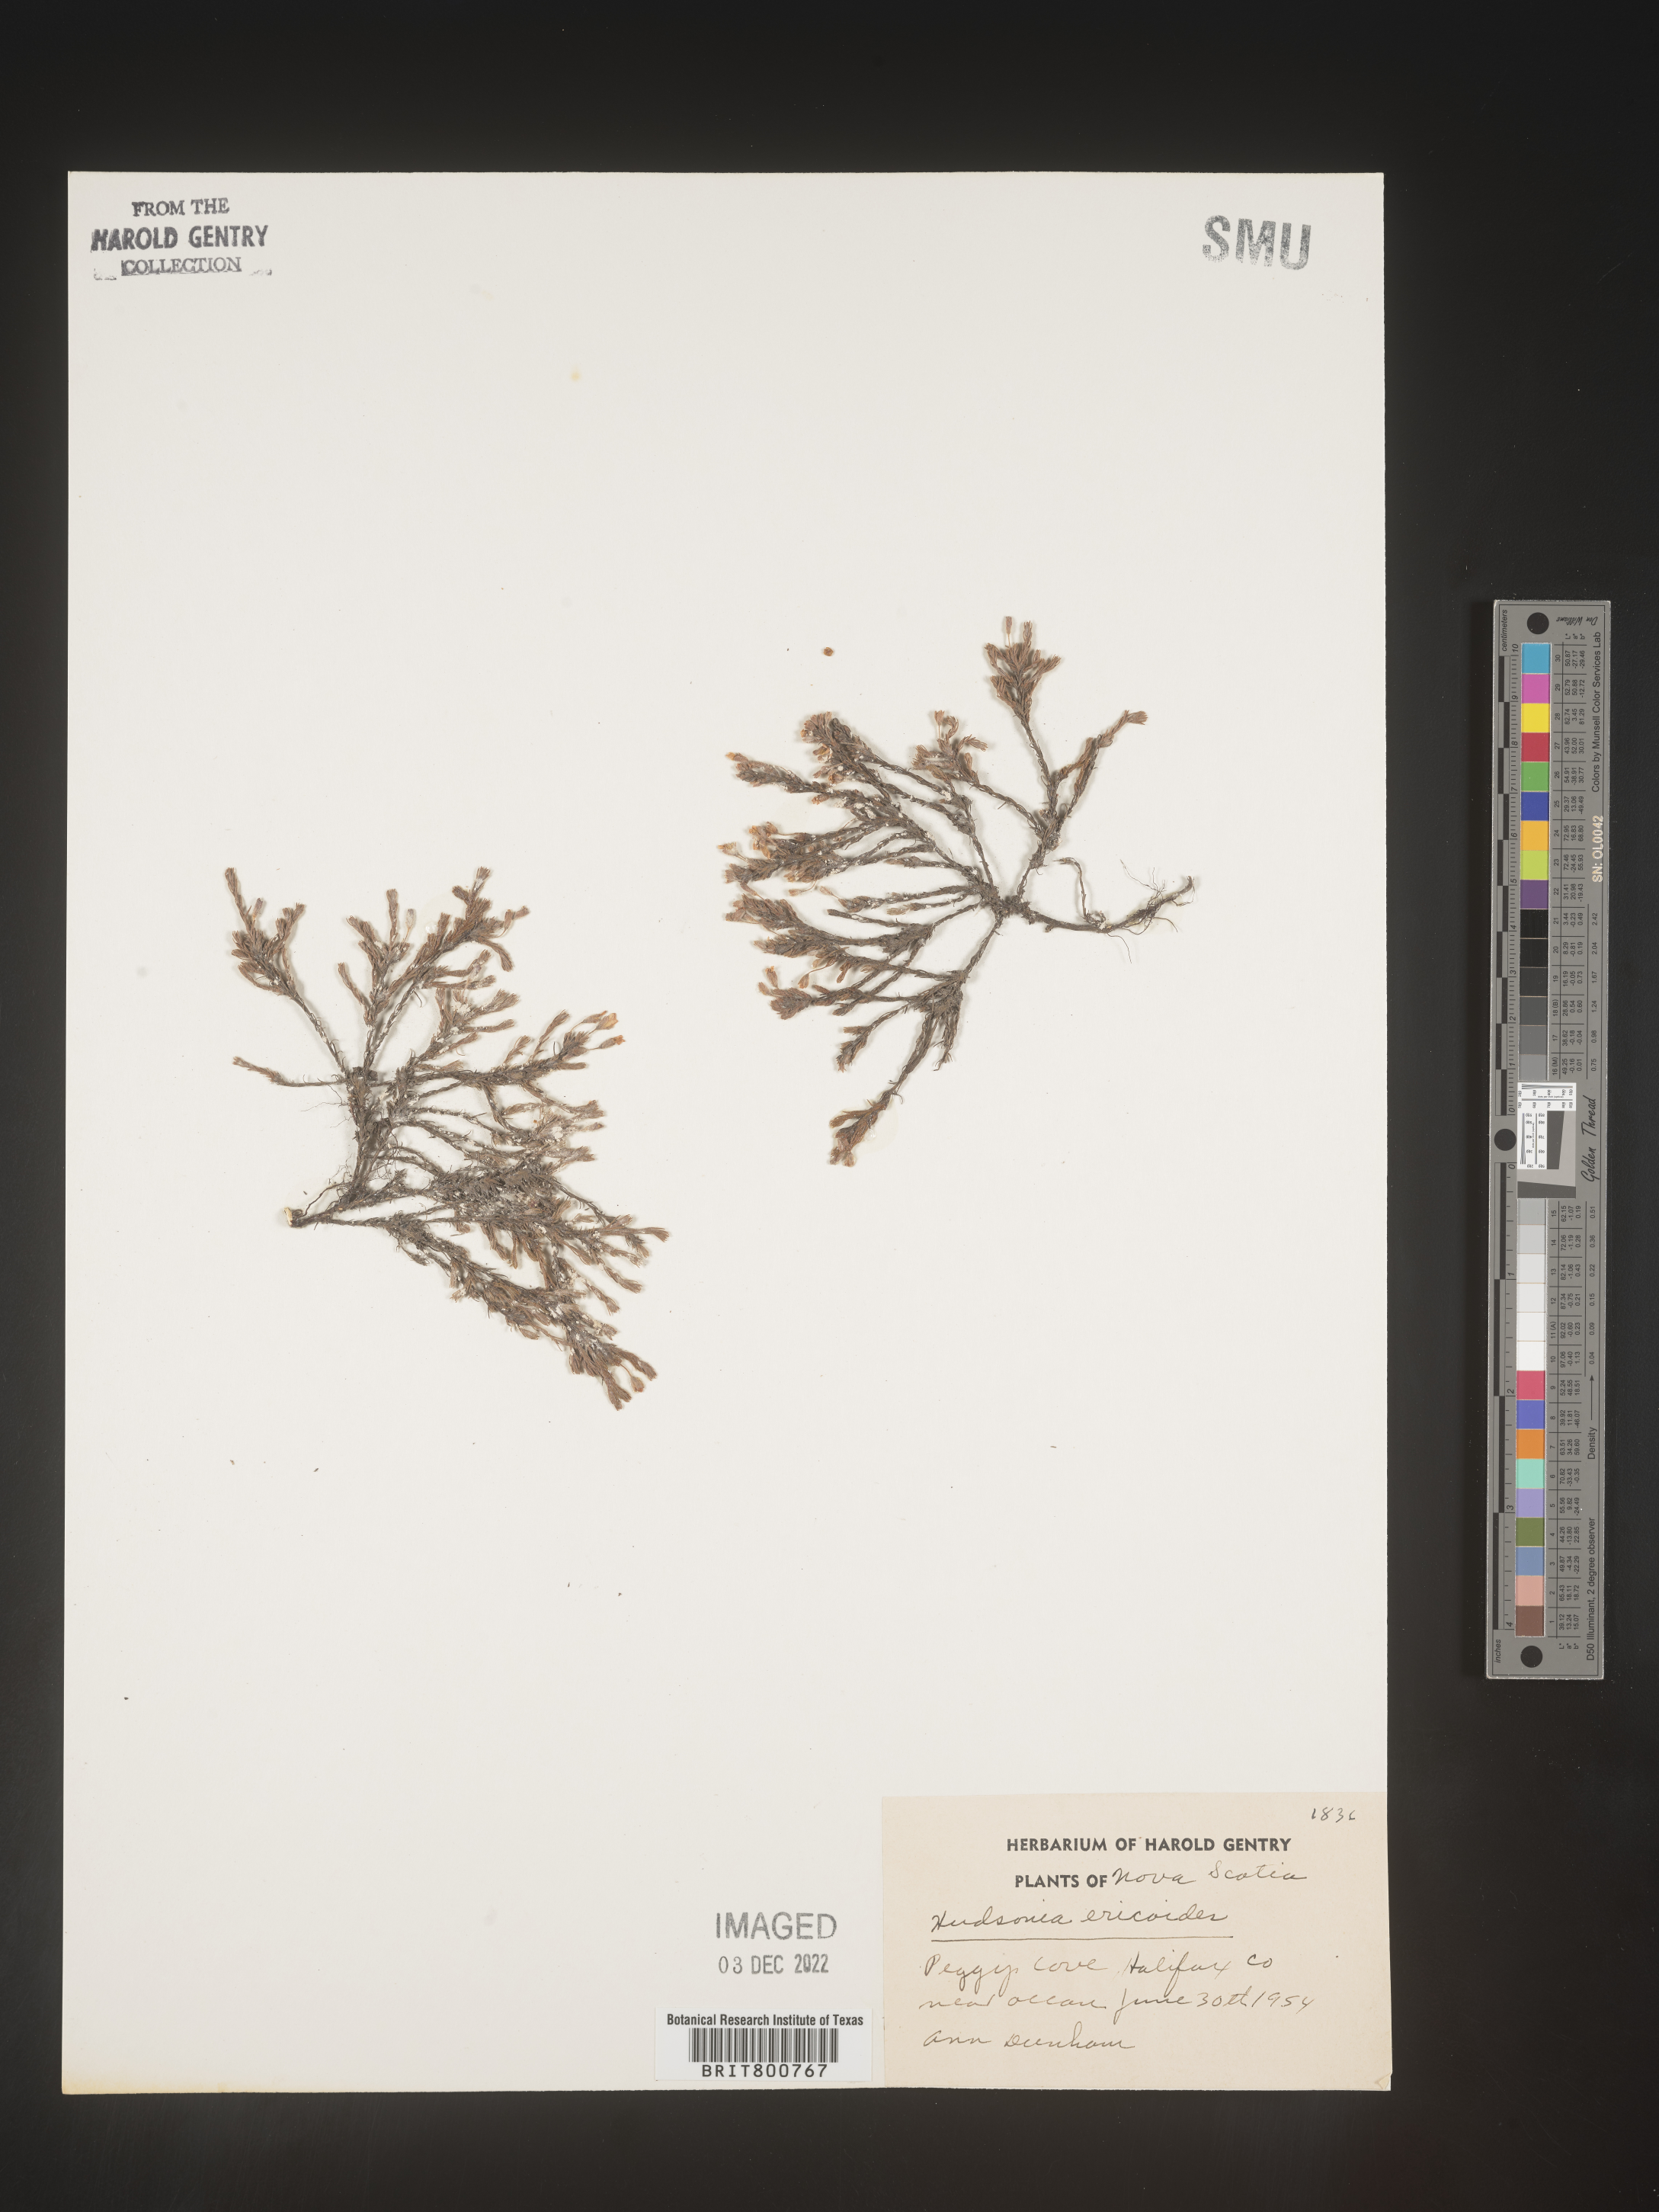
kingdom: Plantae
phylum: Tracheophyta
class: Magnoliopsida
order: Malvales
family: Cistaceae
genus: Hudsonia
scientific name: Hudsonia ericoides
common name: Golden-heather
